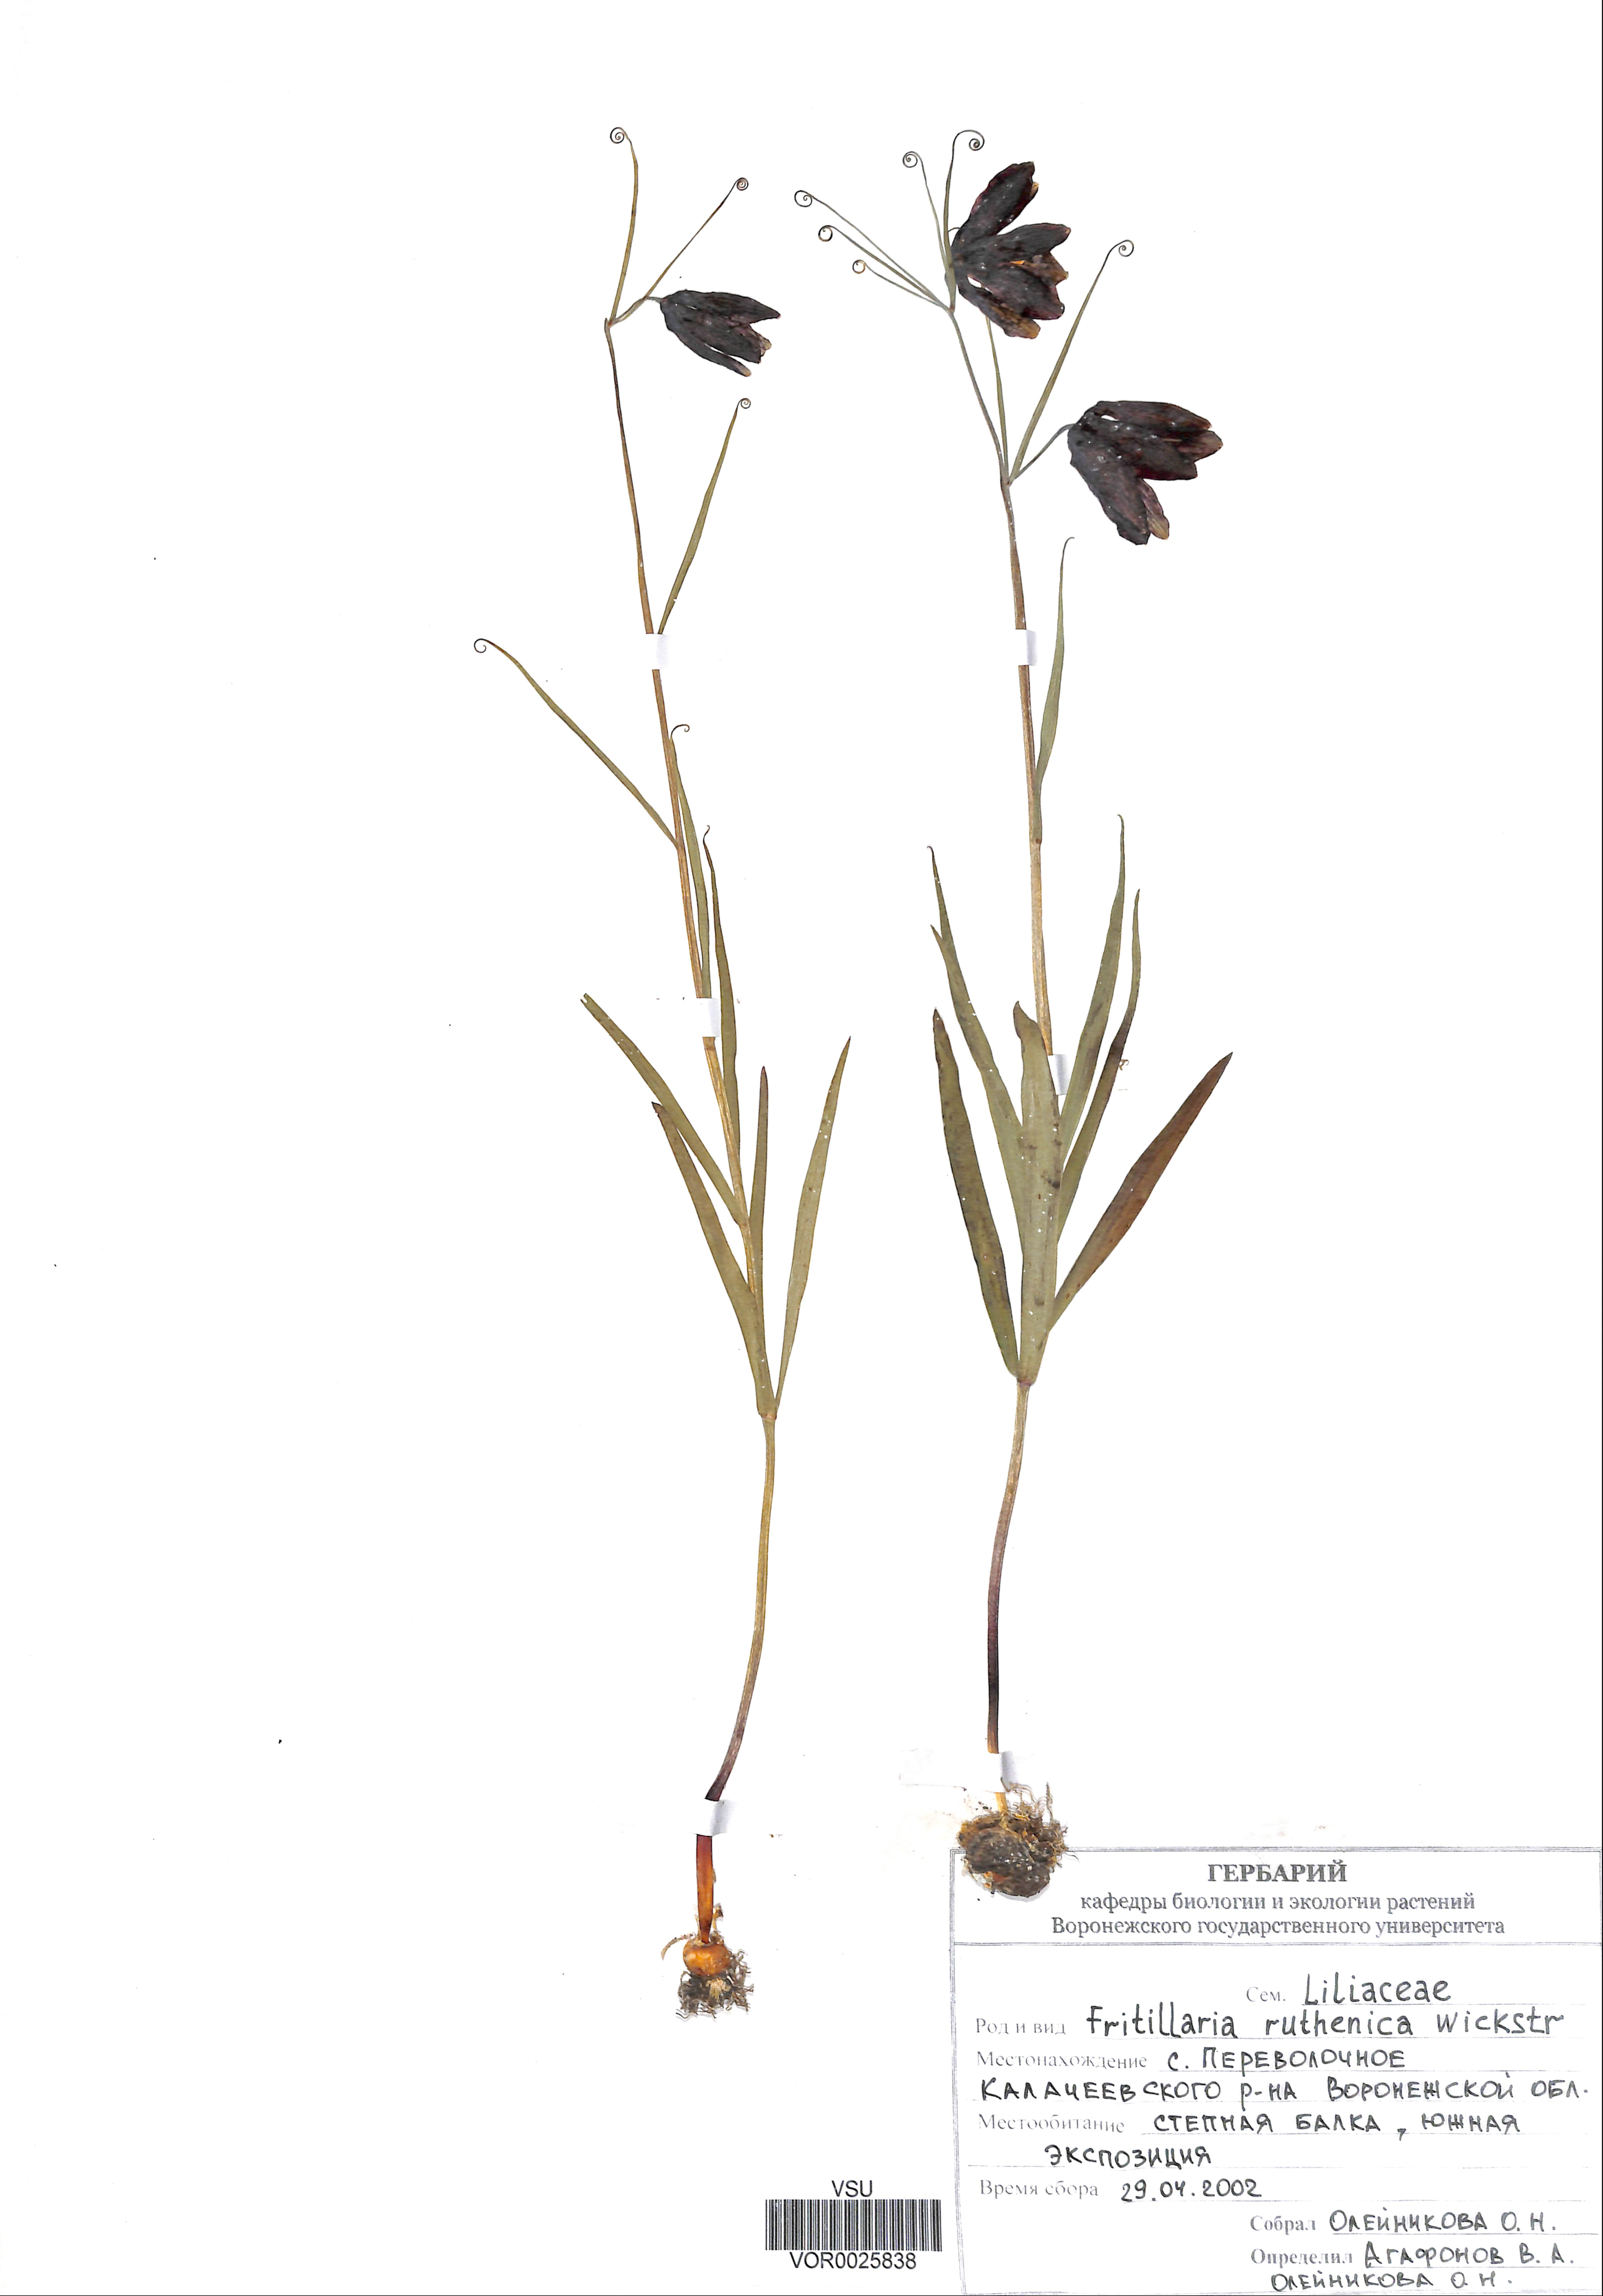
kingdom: Plantae
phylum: Tracheophyta
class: Liliopsida
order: Liliales
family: Liliaceae
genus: Fritillaria
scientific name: Fritillaria ruthenica
